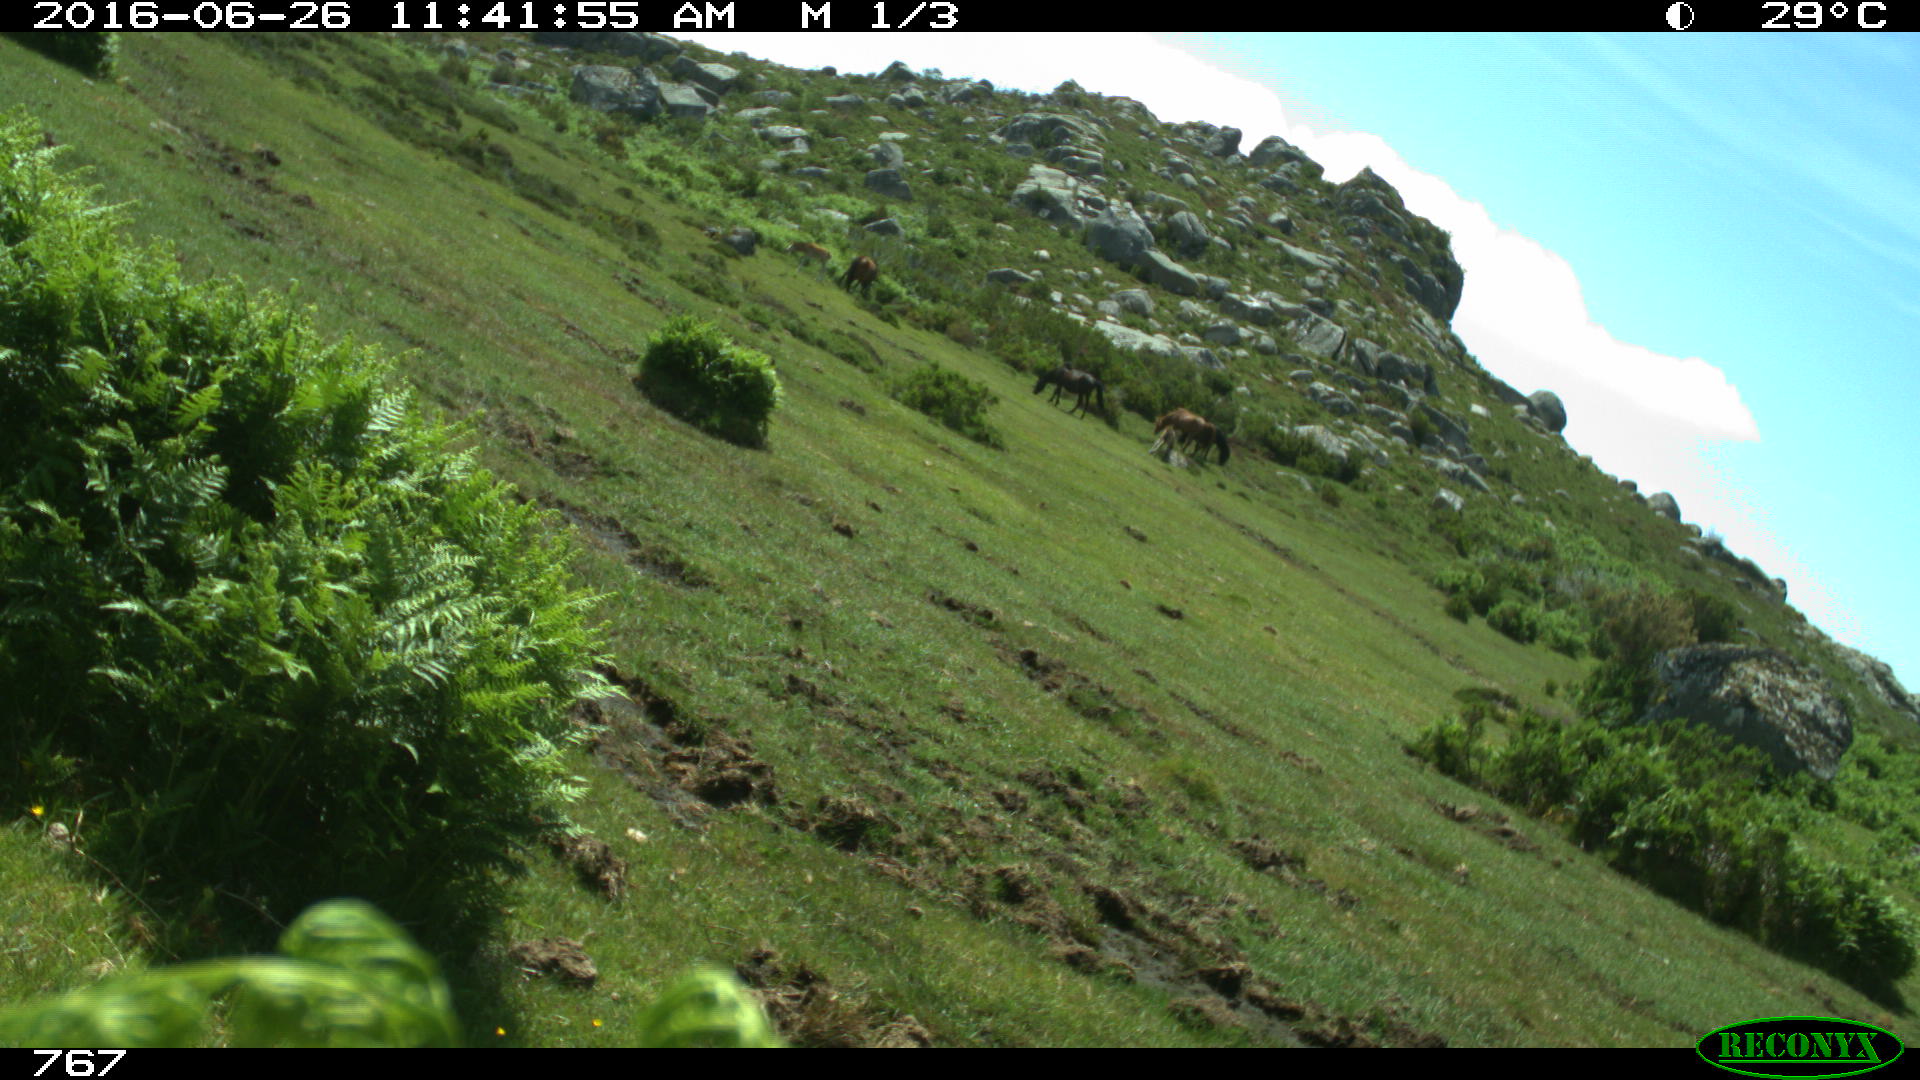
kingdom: Animalia
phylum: Chordata
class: Mammalia
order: Perissodactyla
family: Equidae
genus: Equus
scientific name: Equus caballus
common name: Horse
